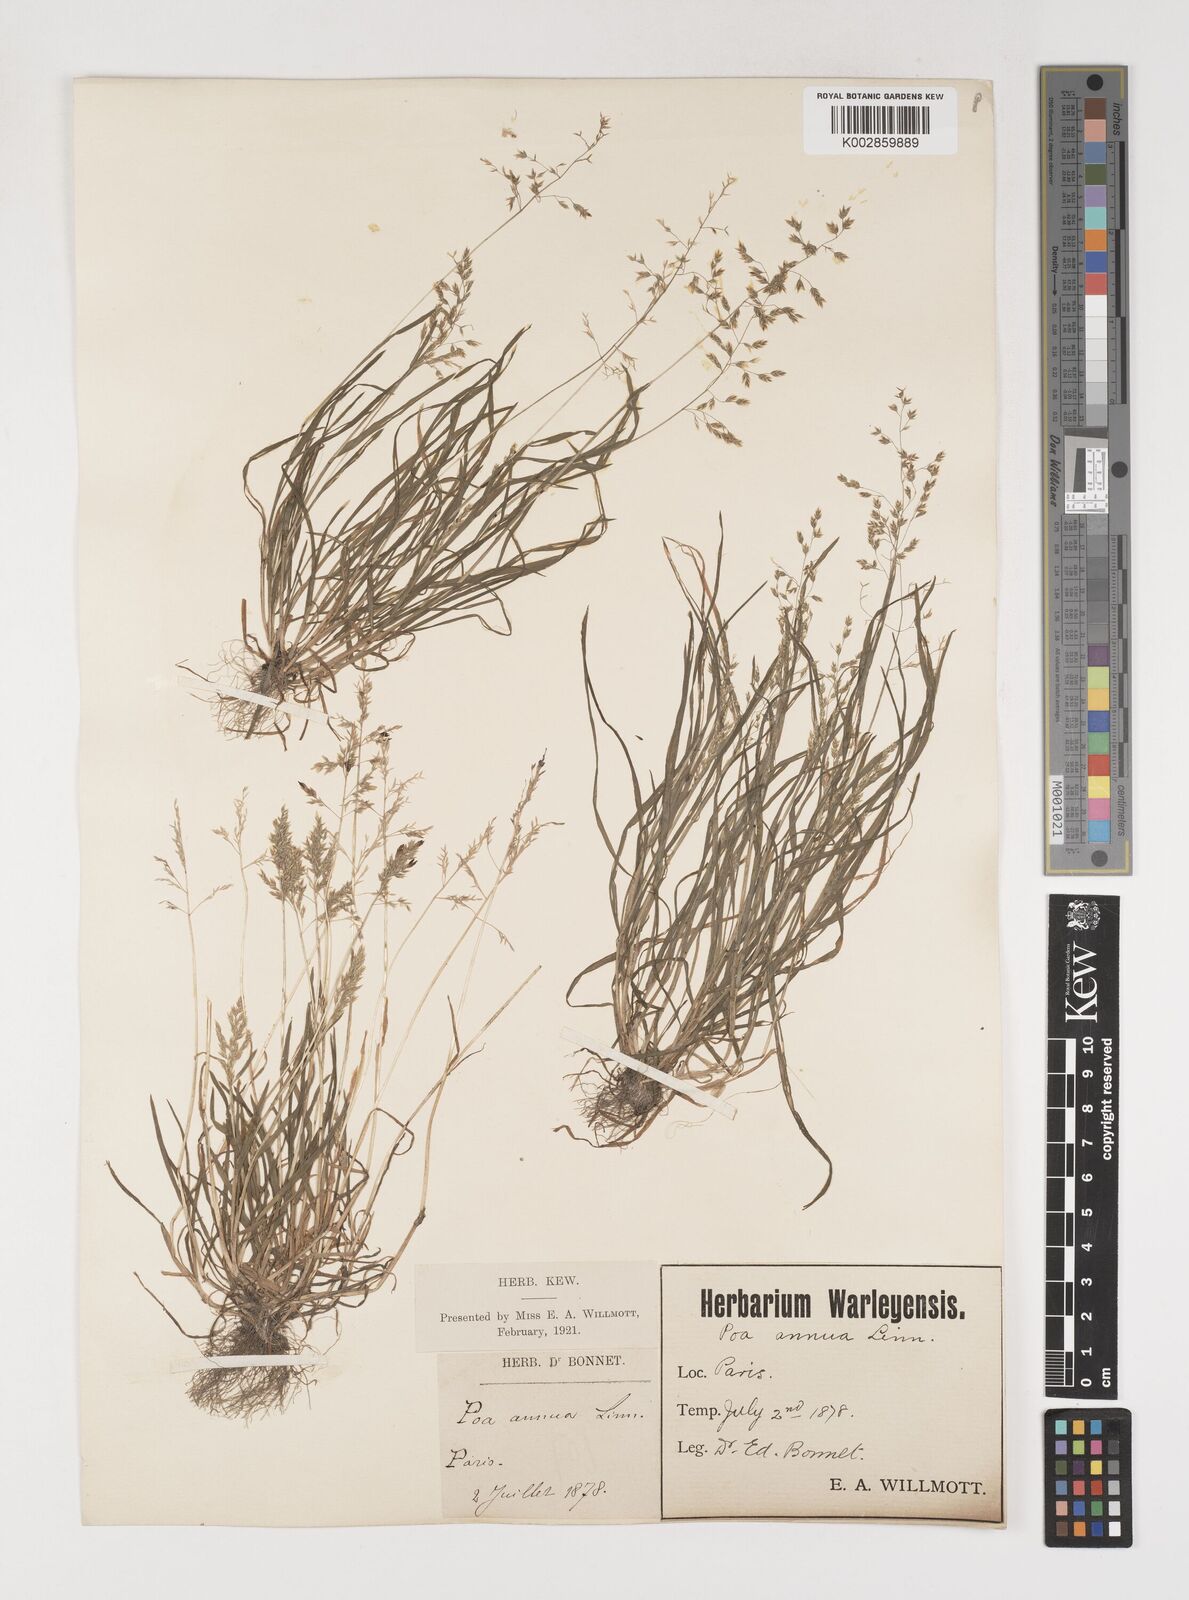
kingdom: Plantae
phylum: Tracheophyta
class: Liliopsida
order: Poales
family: Poaceae
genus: Poa
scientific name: Poa annua
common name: Annual bluegrass
